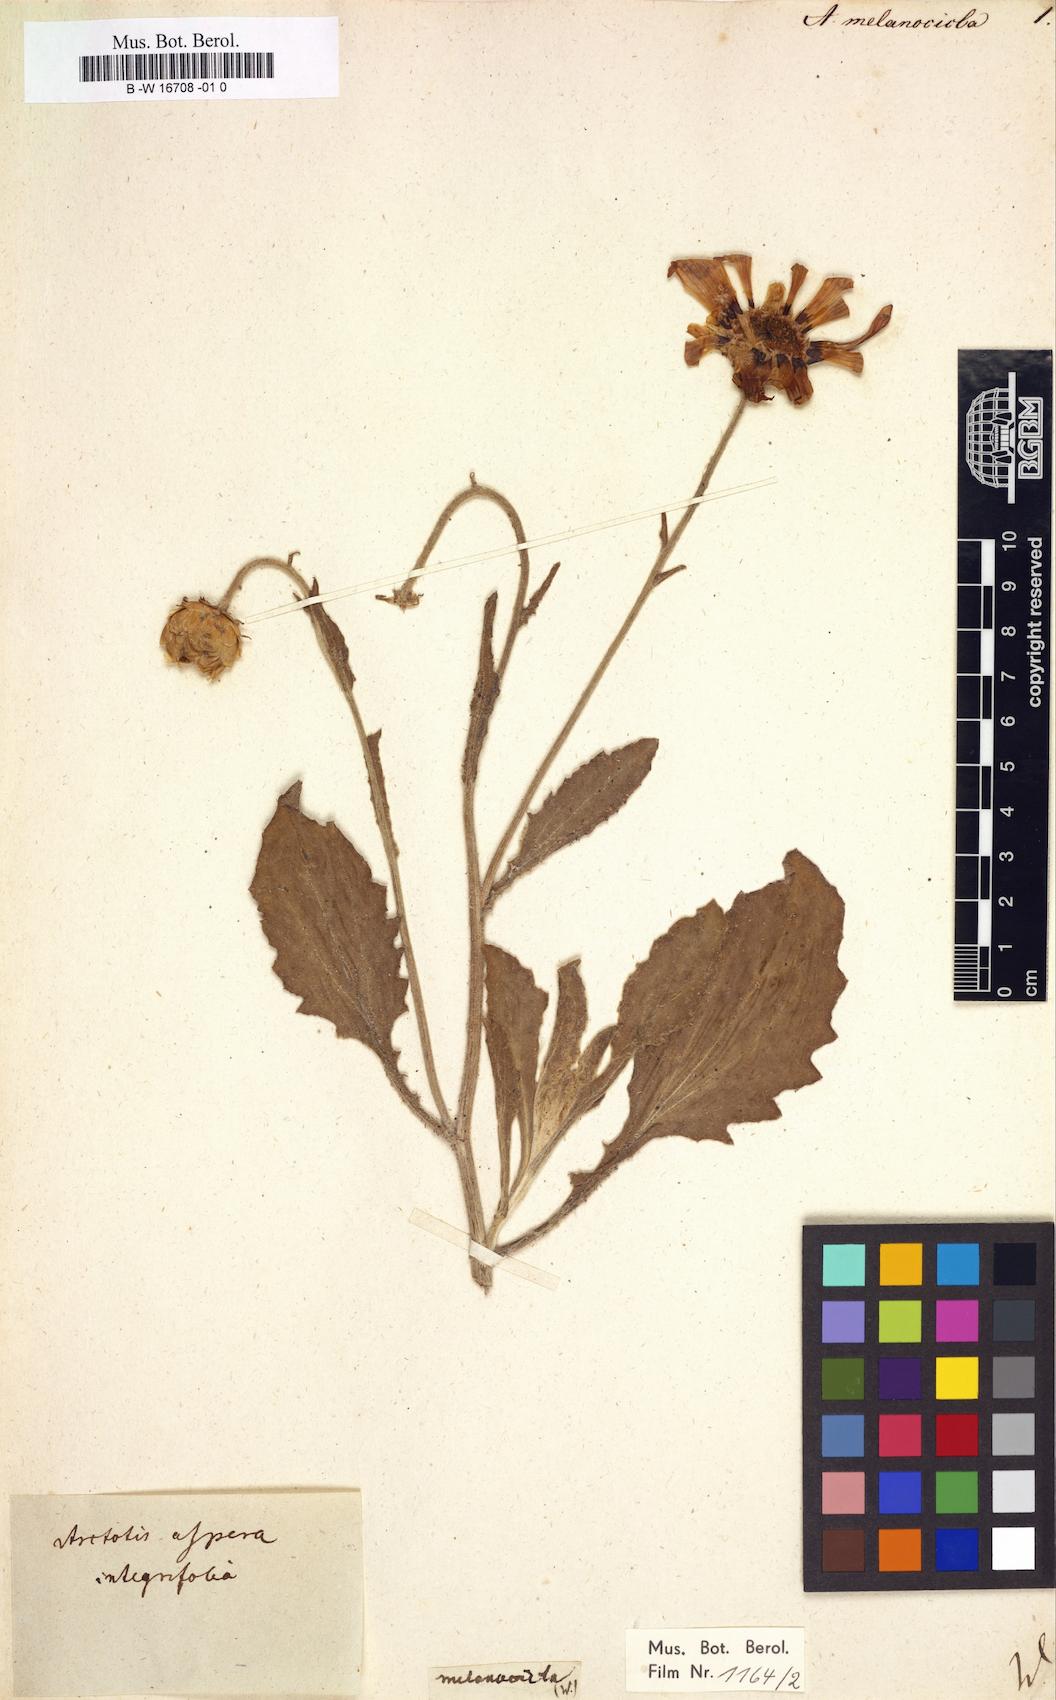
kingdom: Plantae
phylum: Tracheophyta
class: Magnoliopsida
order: Asterales
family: Asteraceae
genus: Arctotis
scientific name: Arctotis
